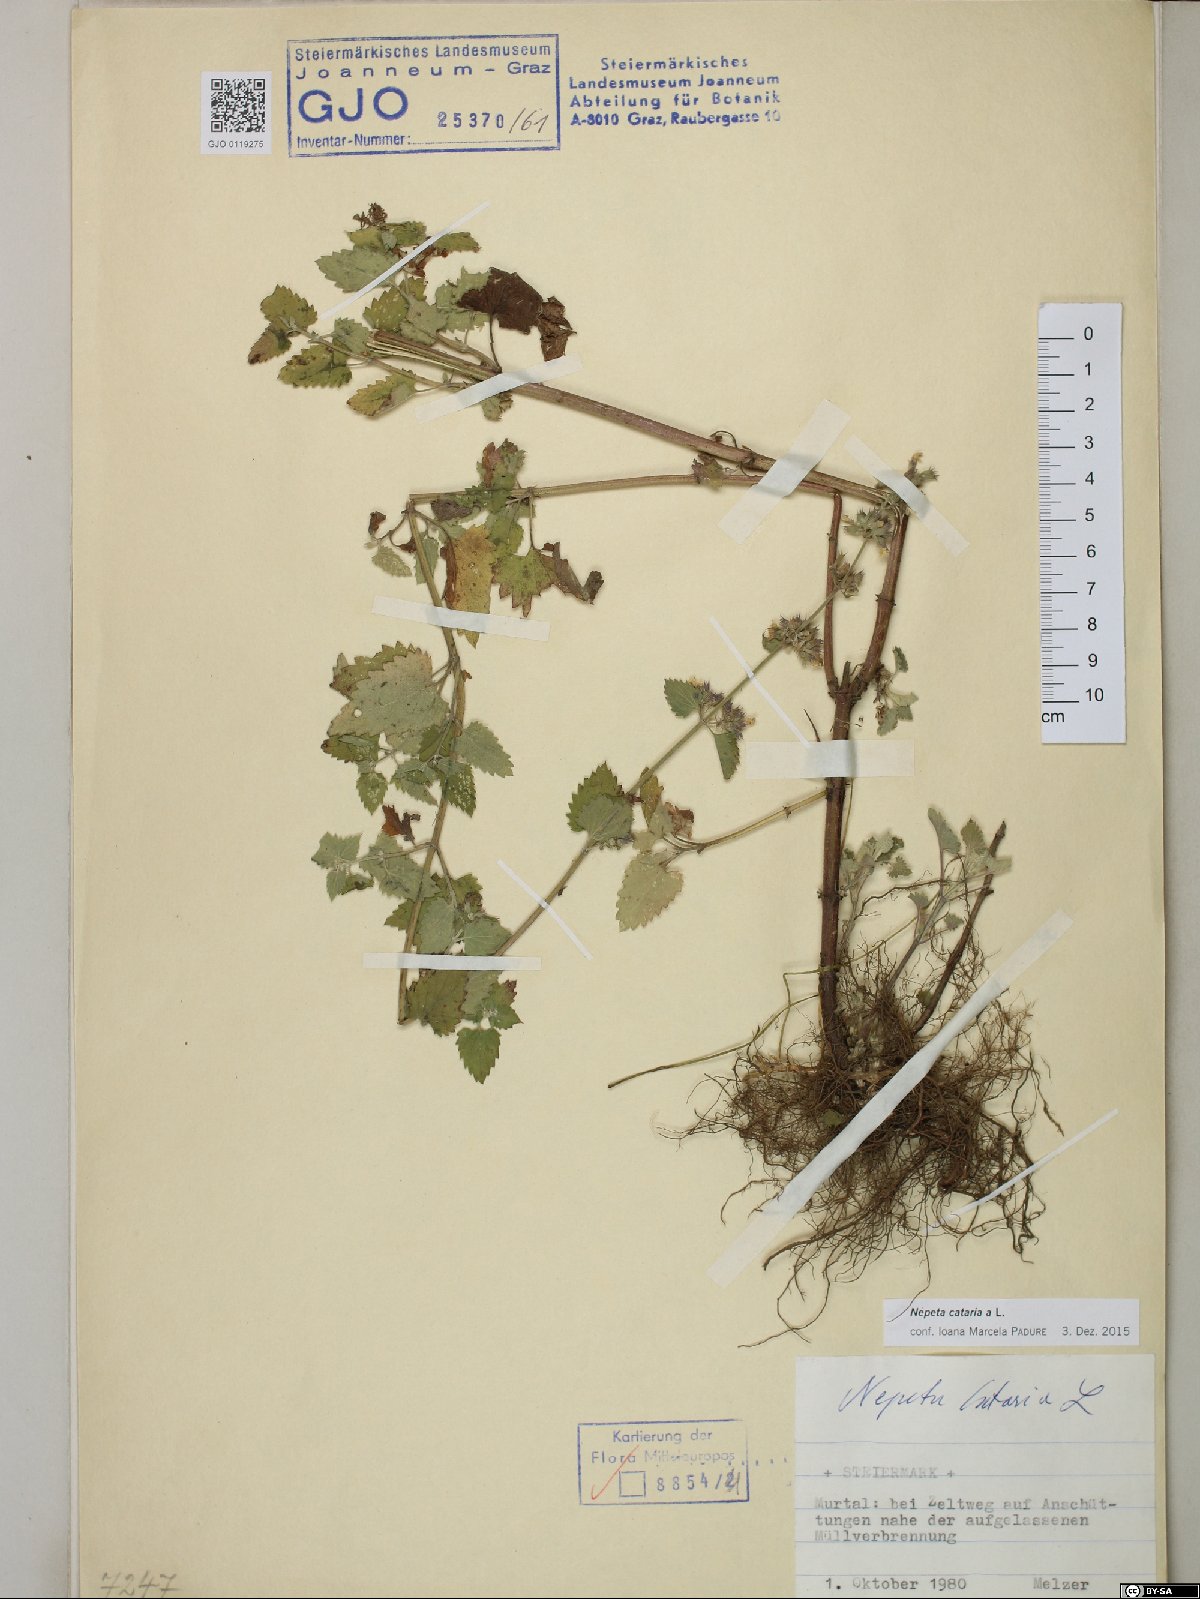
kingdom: Plantae
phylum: Tracheophyta
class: Magnoliopsida
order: Lamiales
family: Lamiaceae
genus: Nepeta
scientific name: Nepeta cataria
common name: Catnip
